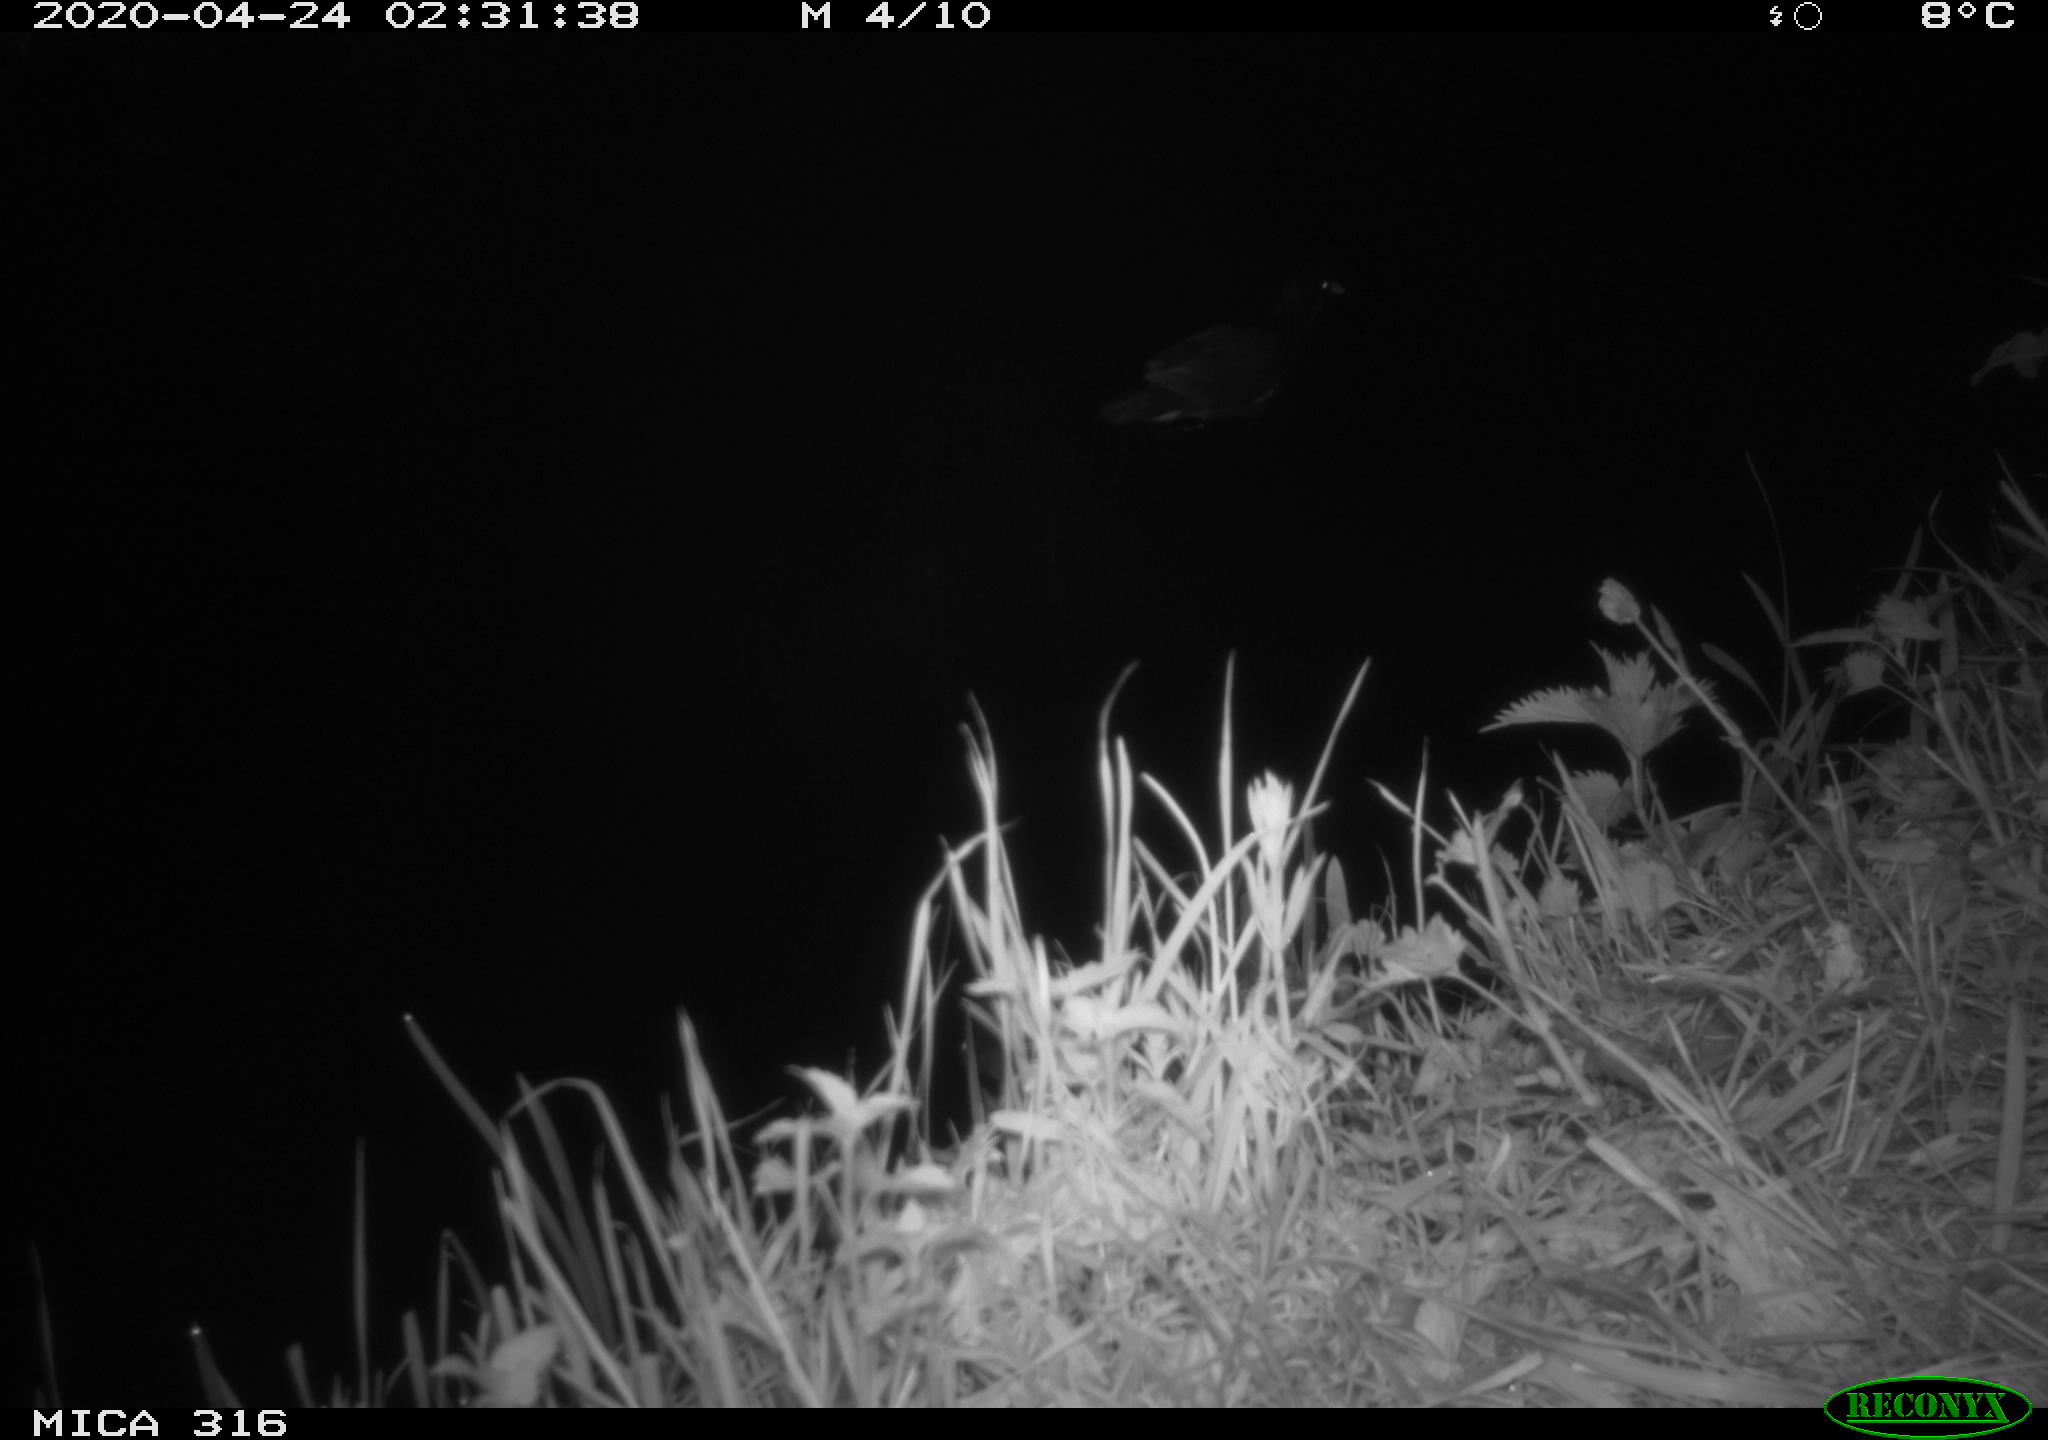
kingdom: Animalia
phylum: Chordata
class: Aves
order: Gruiformes
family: Rallidae
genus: Gallinula
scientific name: Gallinula chloropus
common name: Common moorhen
